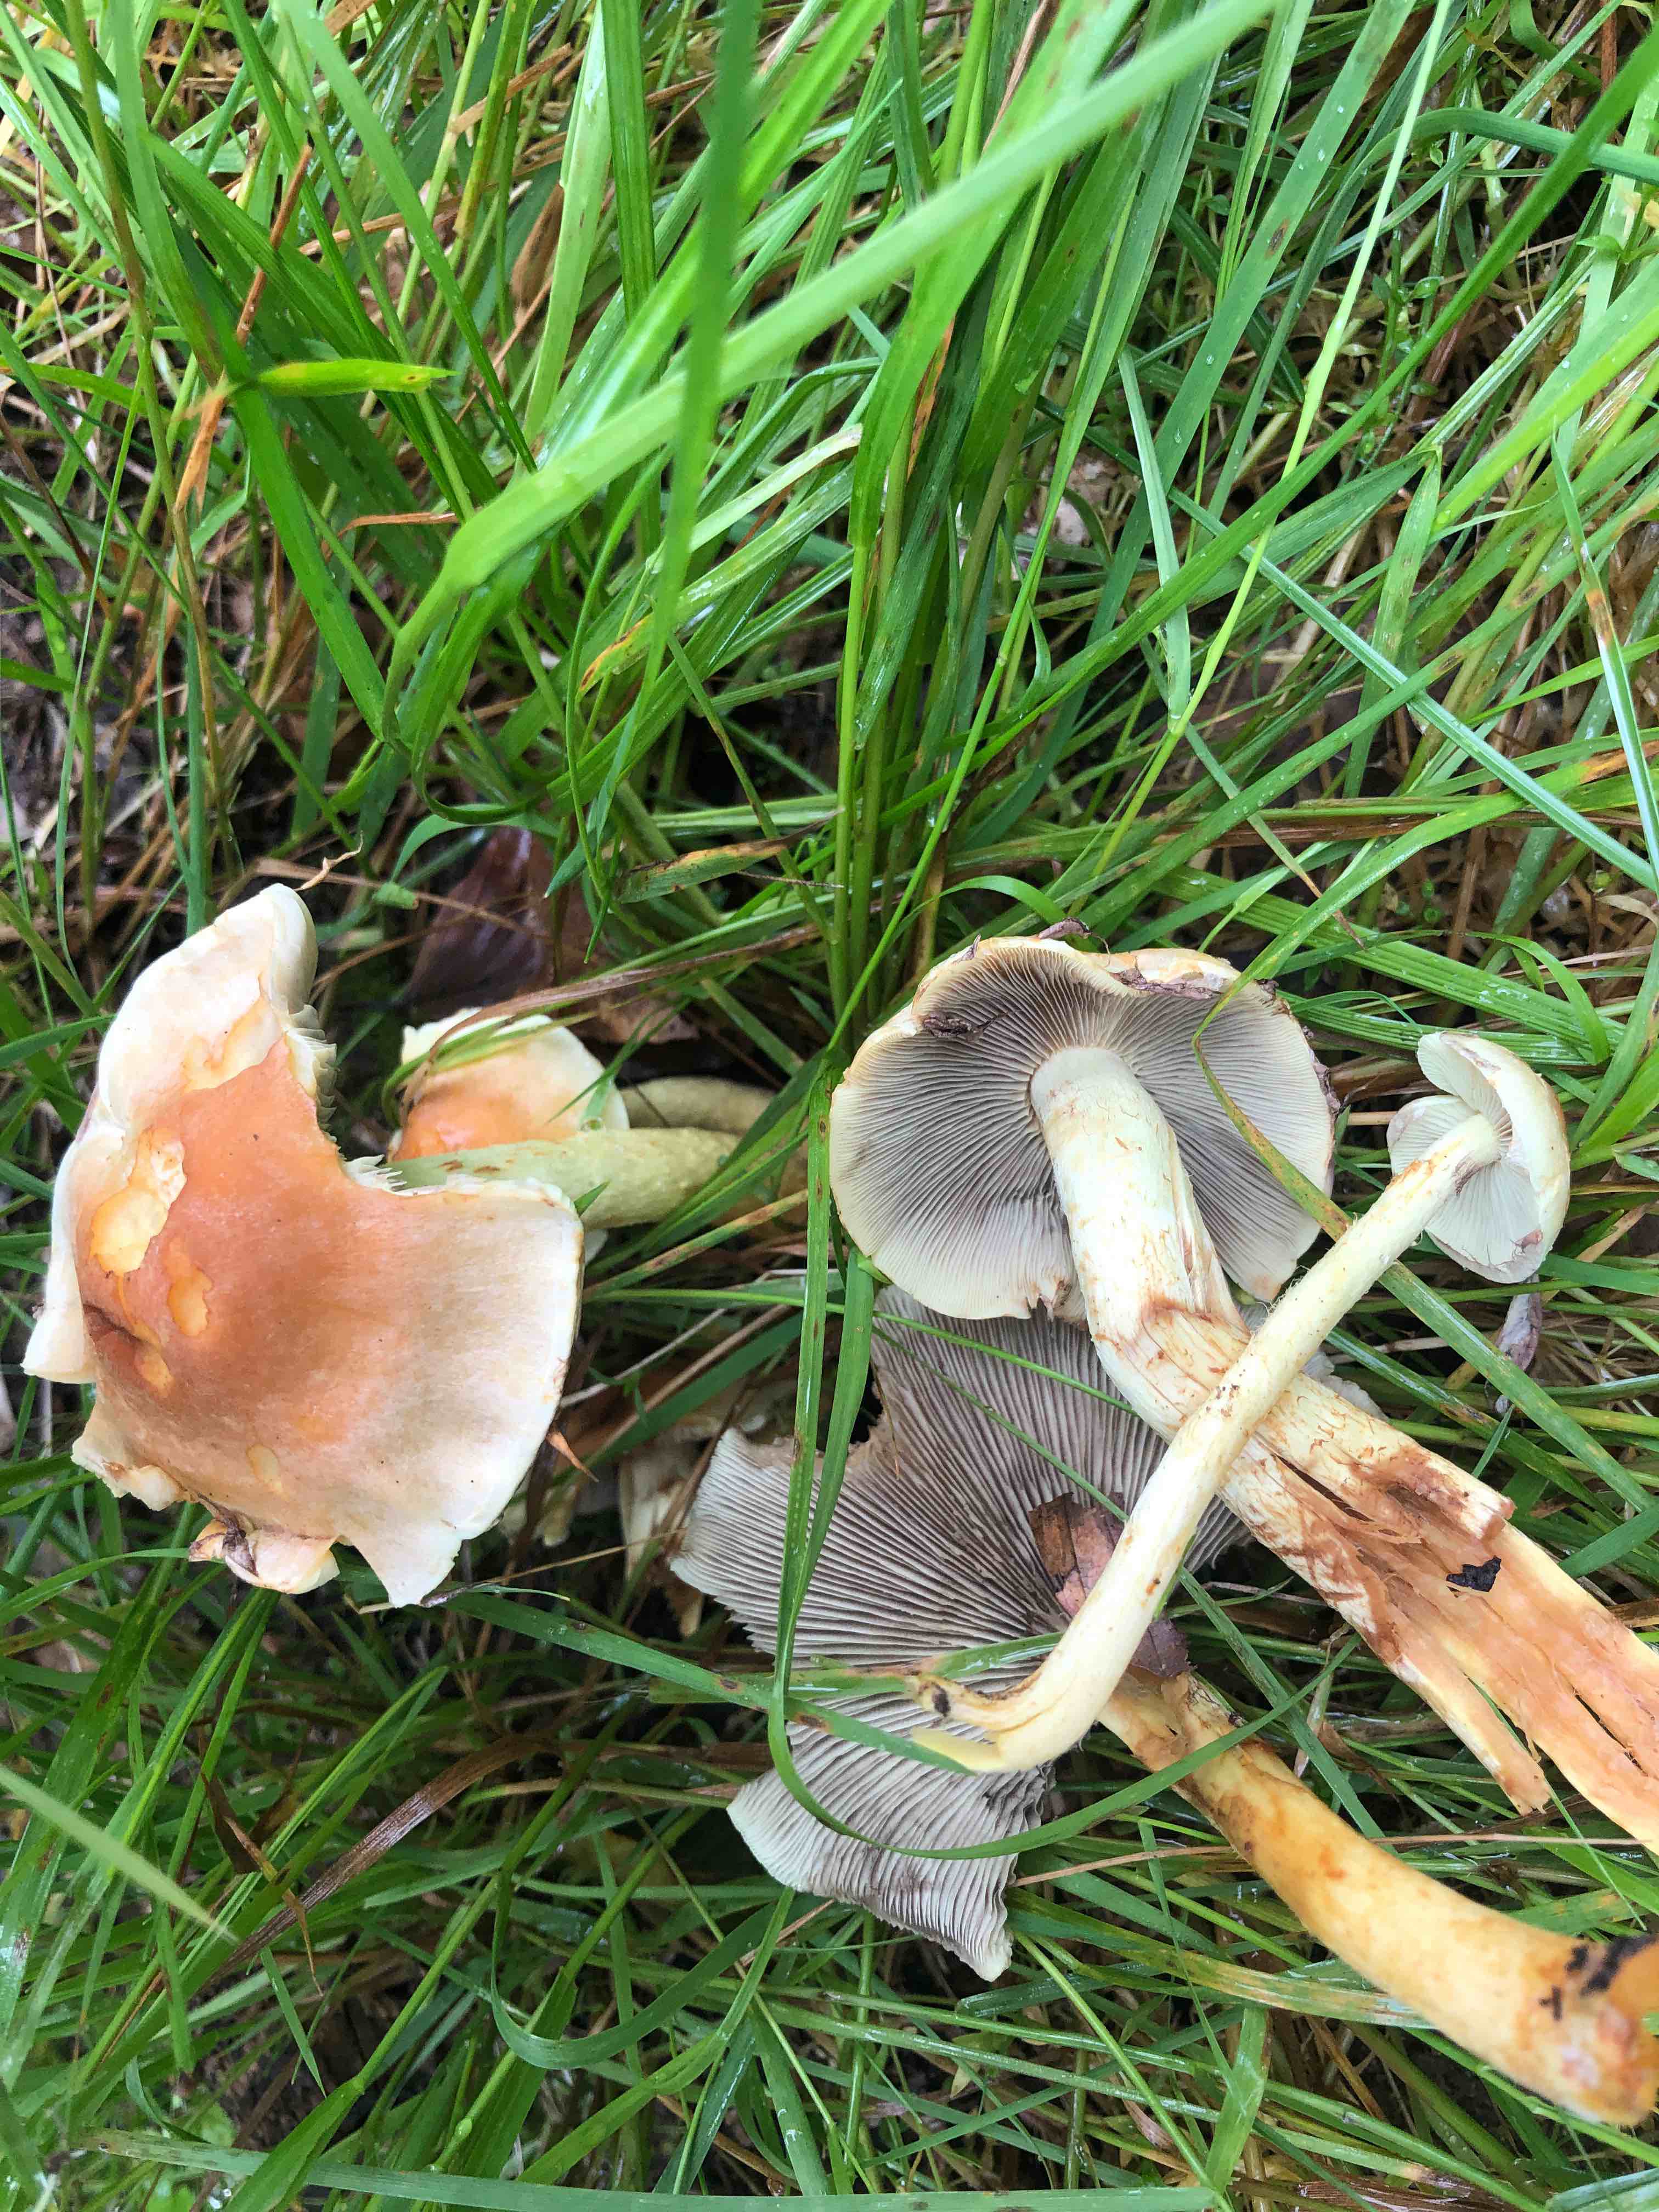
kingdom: Fungi
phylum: Basidiomycota
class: Agaricomycetes
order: Agaricales
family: Strophariaceae
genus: Hypholoma
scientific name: Hypholoma fasciculare
